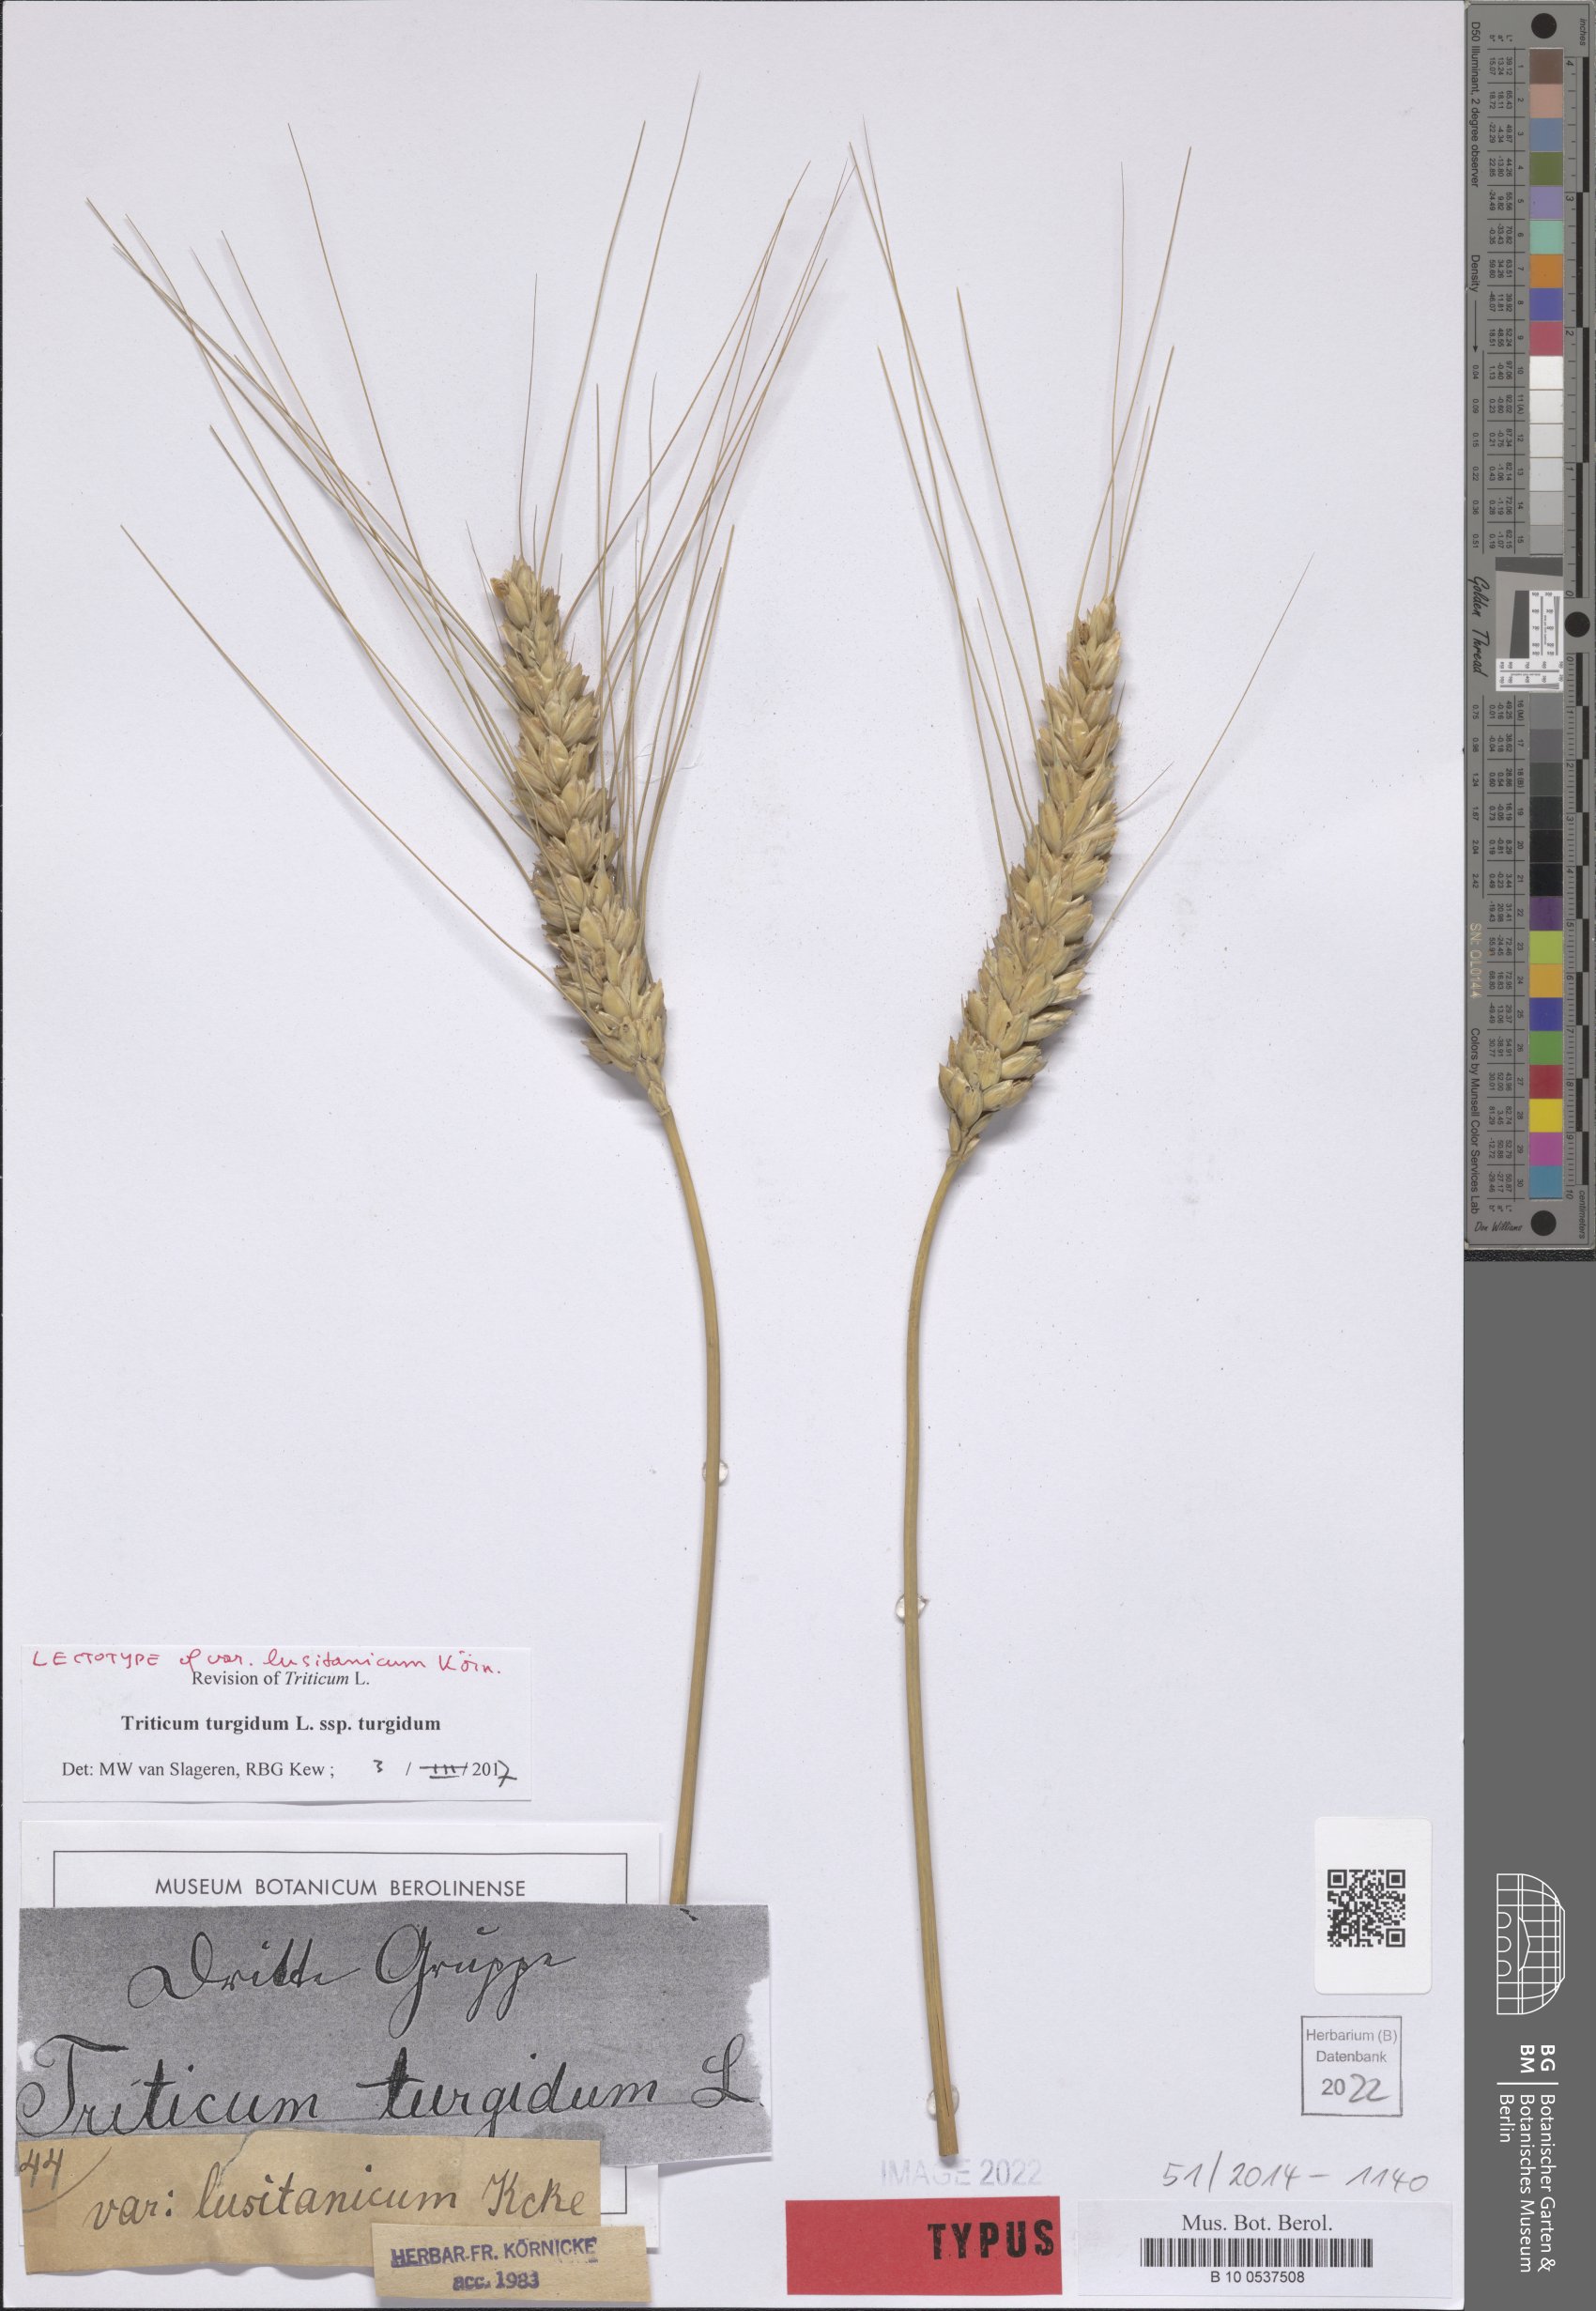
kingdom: Plantae
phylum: Tracheophyta
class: Liliopsida
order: Poales
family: Poaceae
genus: Triticum
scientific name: Triticum turgidum
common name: Rivet wheat
